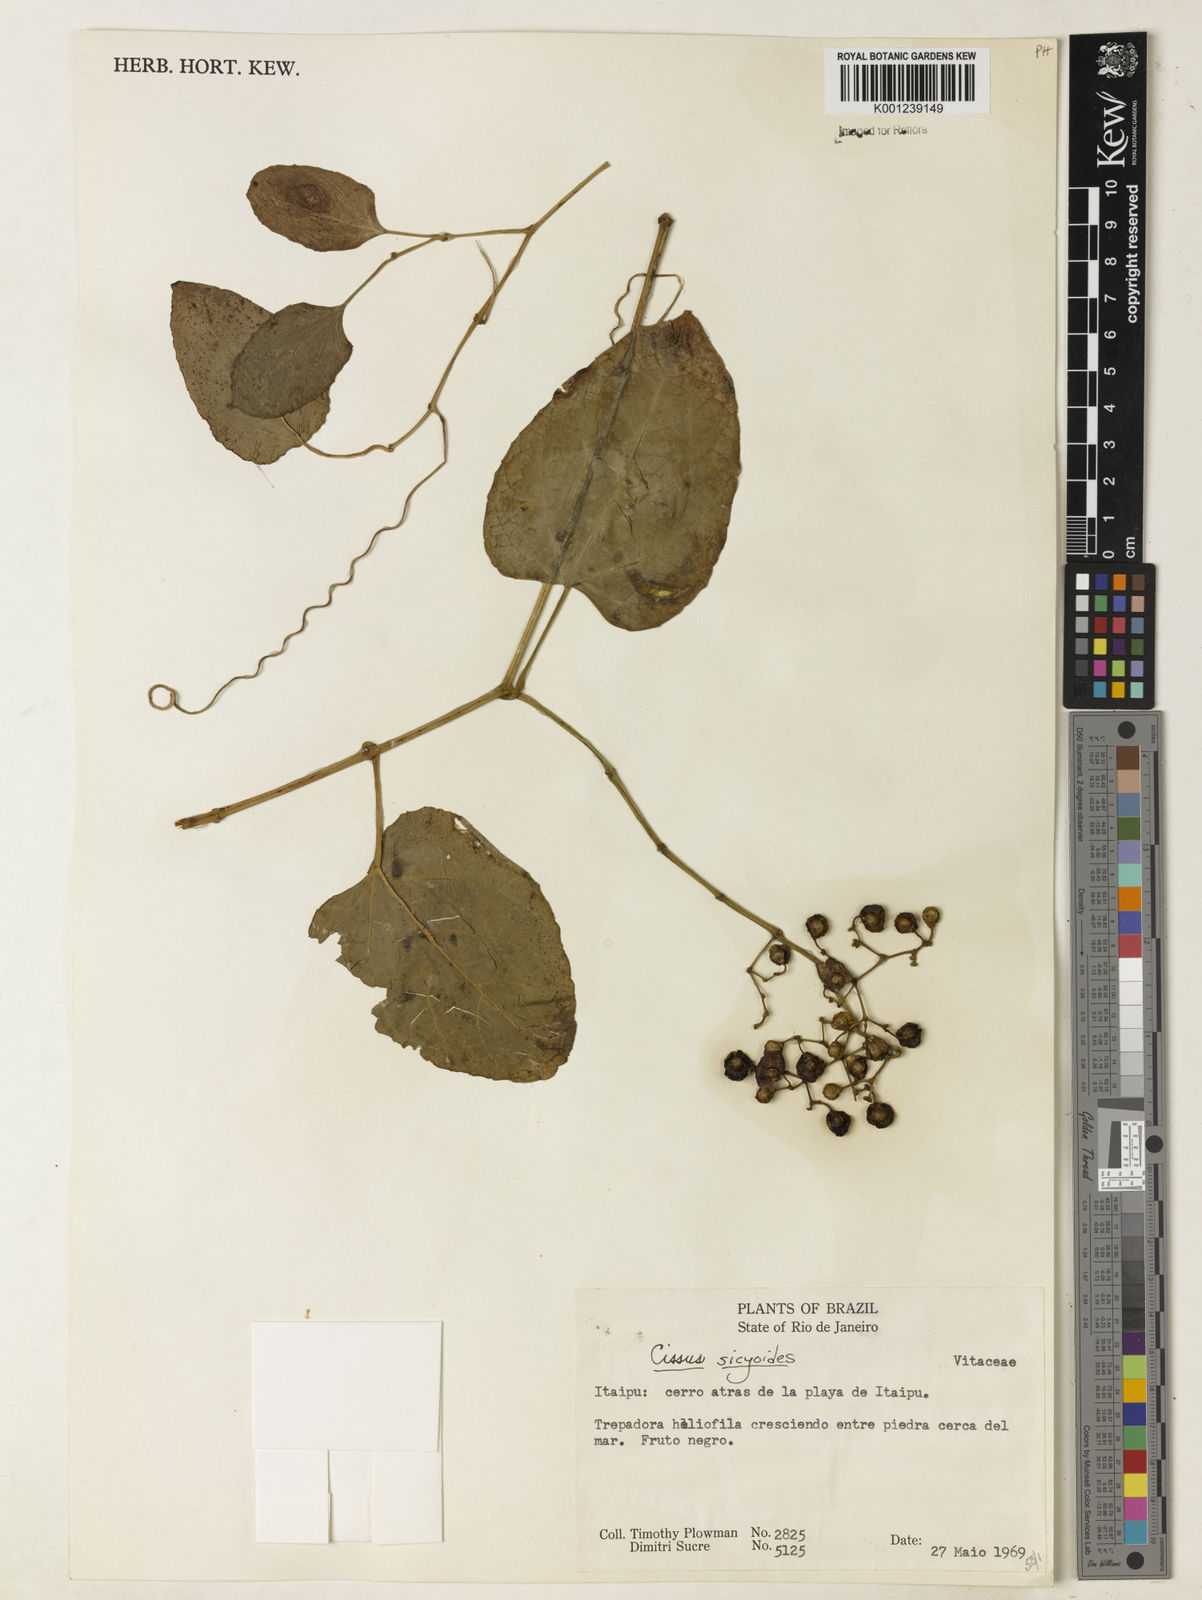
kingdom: Plantae
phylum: Tracheophyta
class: Magnoliopsida
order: Vitales
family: Vitaceae
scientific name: Vitaceae
